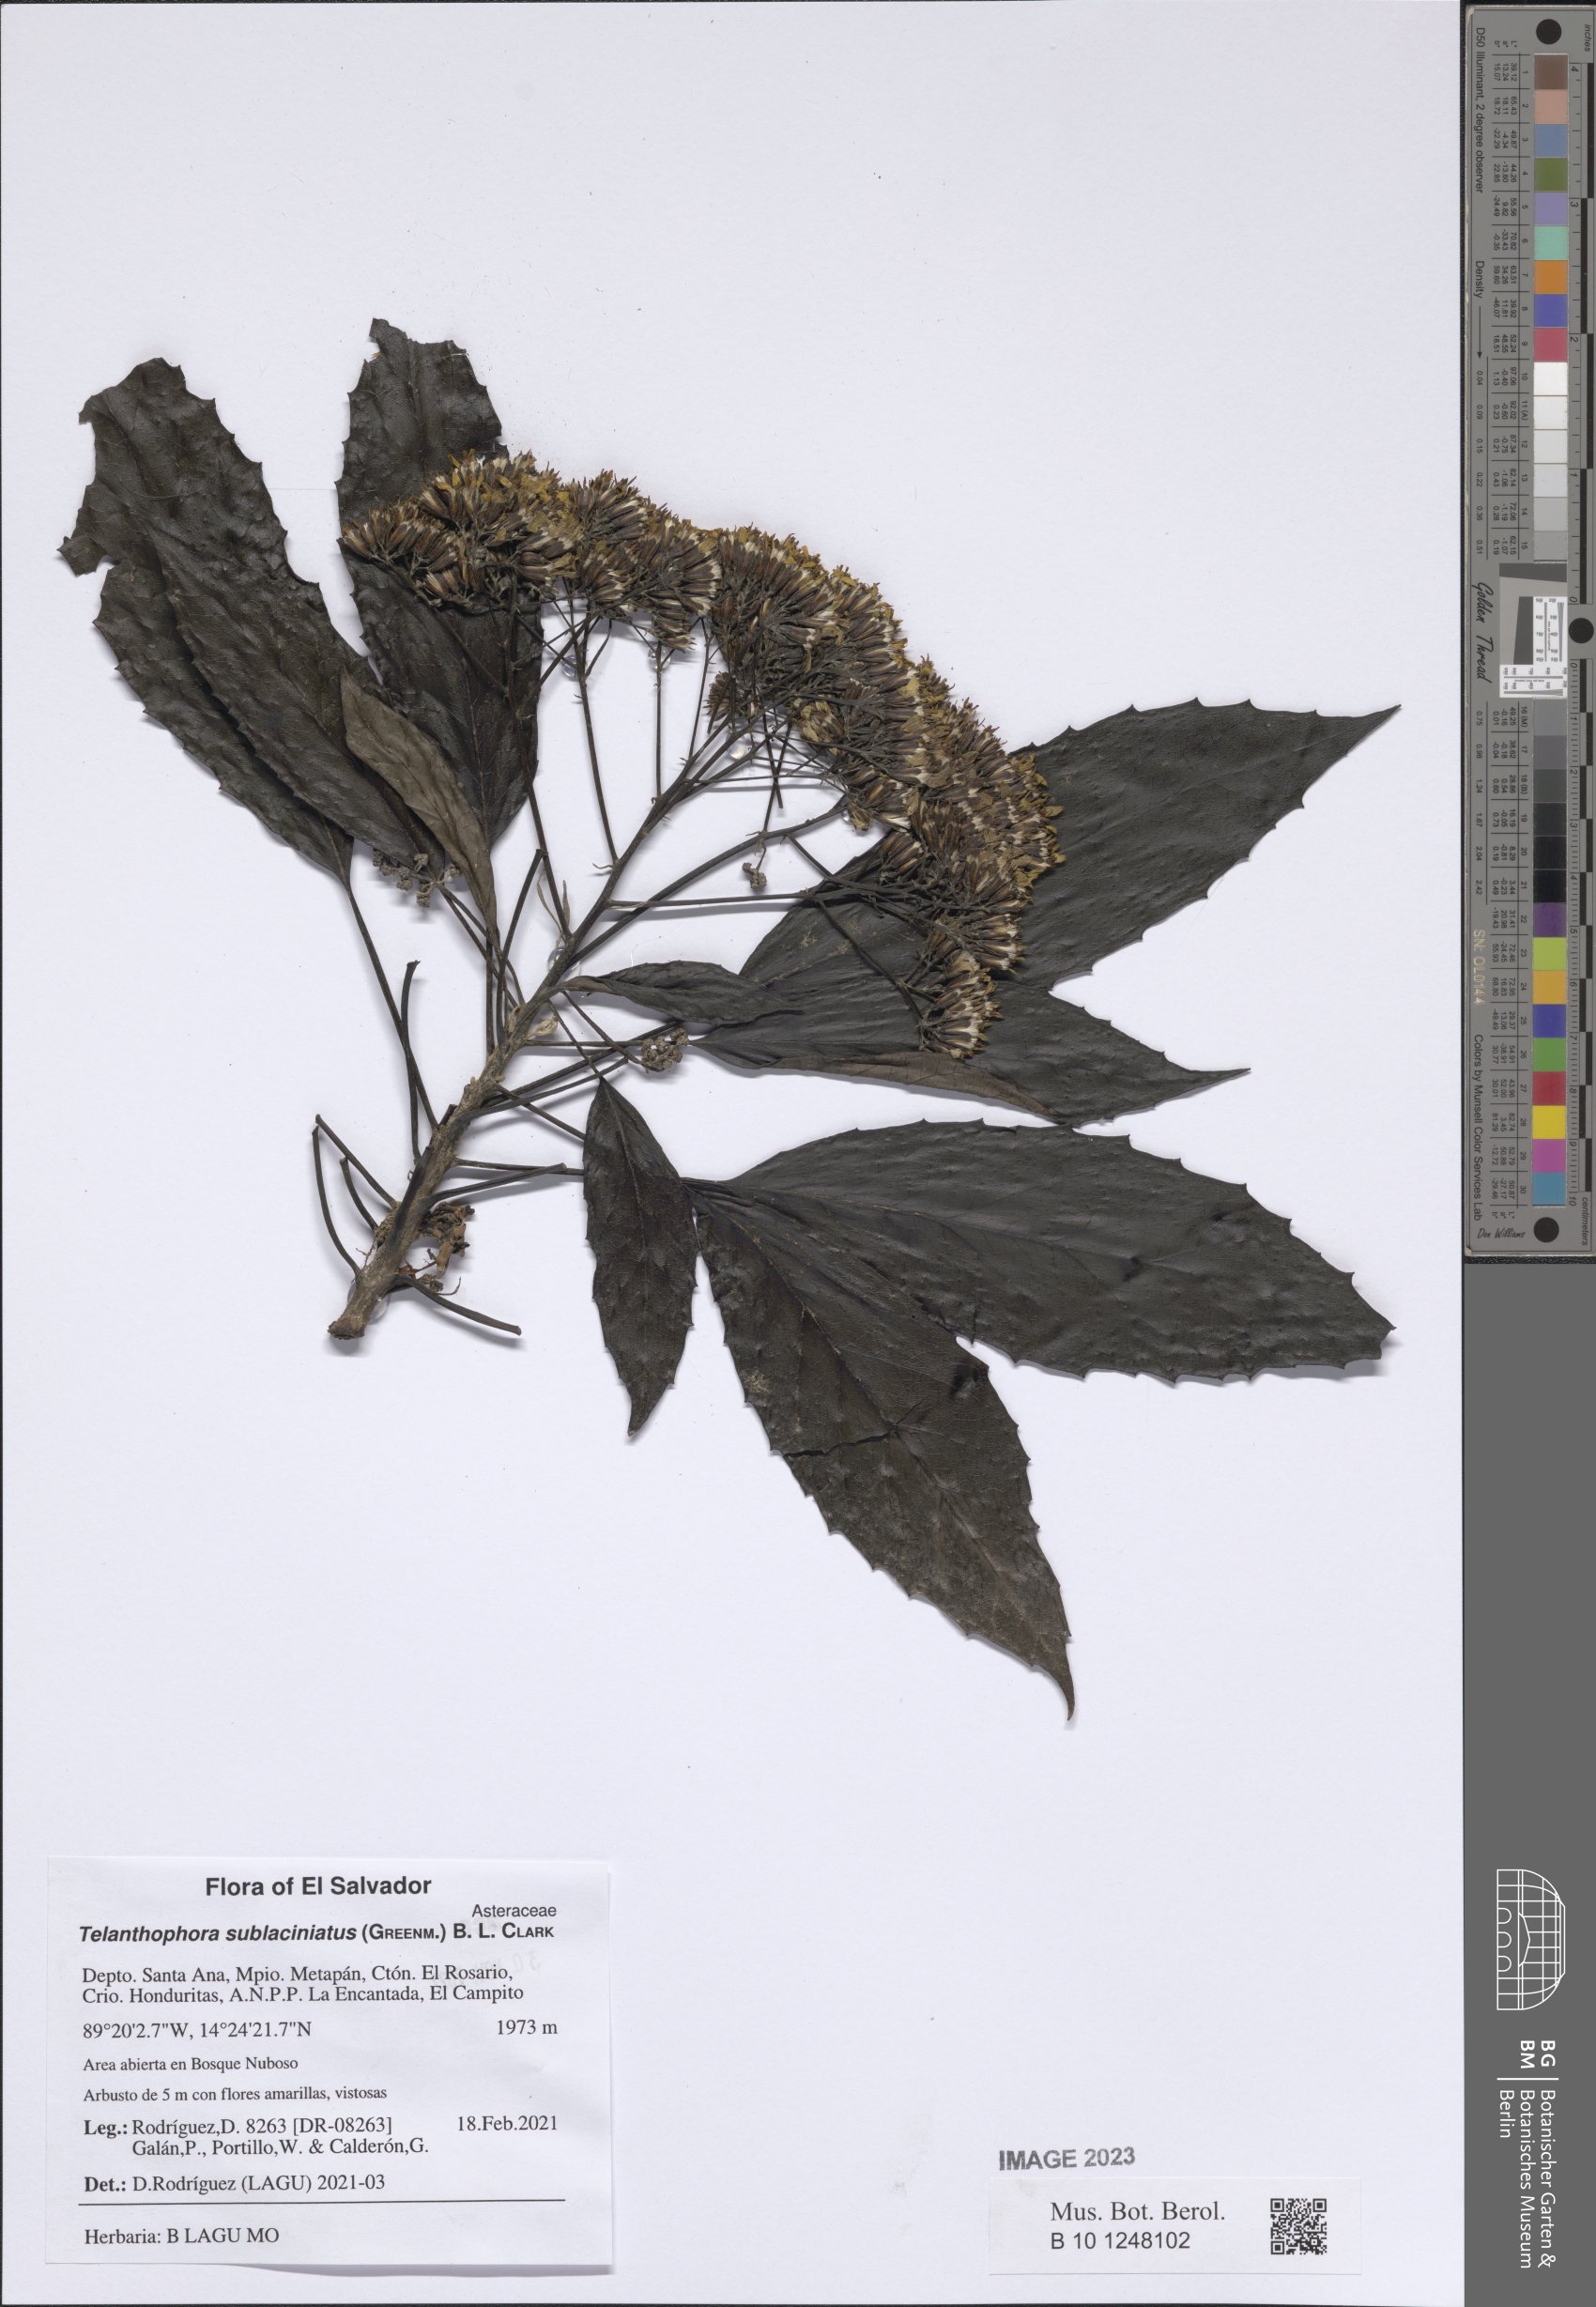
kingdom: Plantae
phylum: Tracheophyta
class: Magnoliopsida
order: Asterales
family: Asteraceae
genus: Telanthophora
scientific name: Telanthophora sublaciniata
